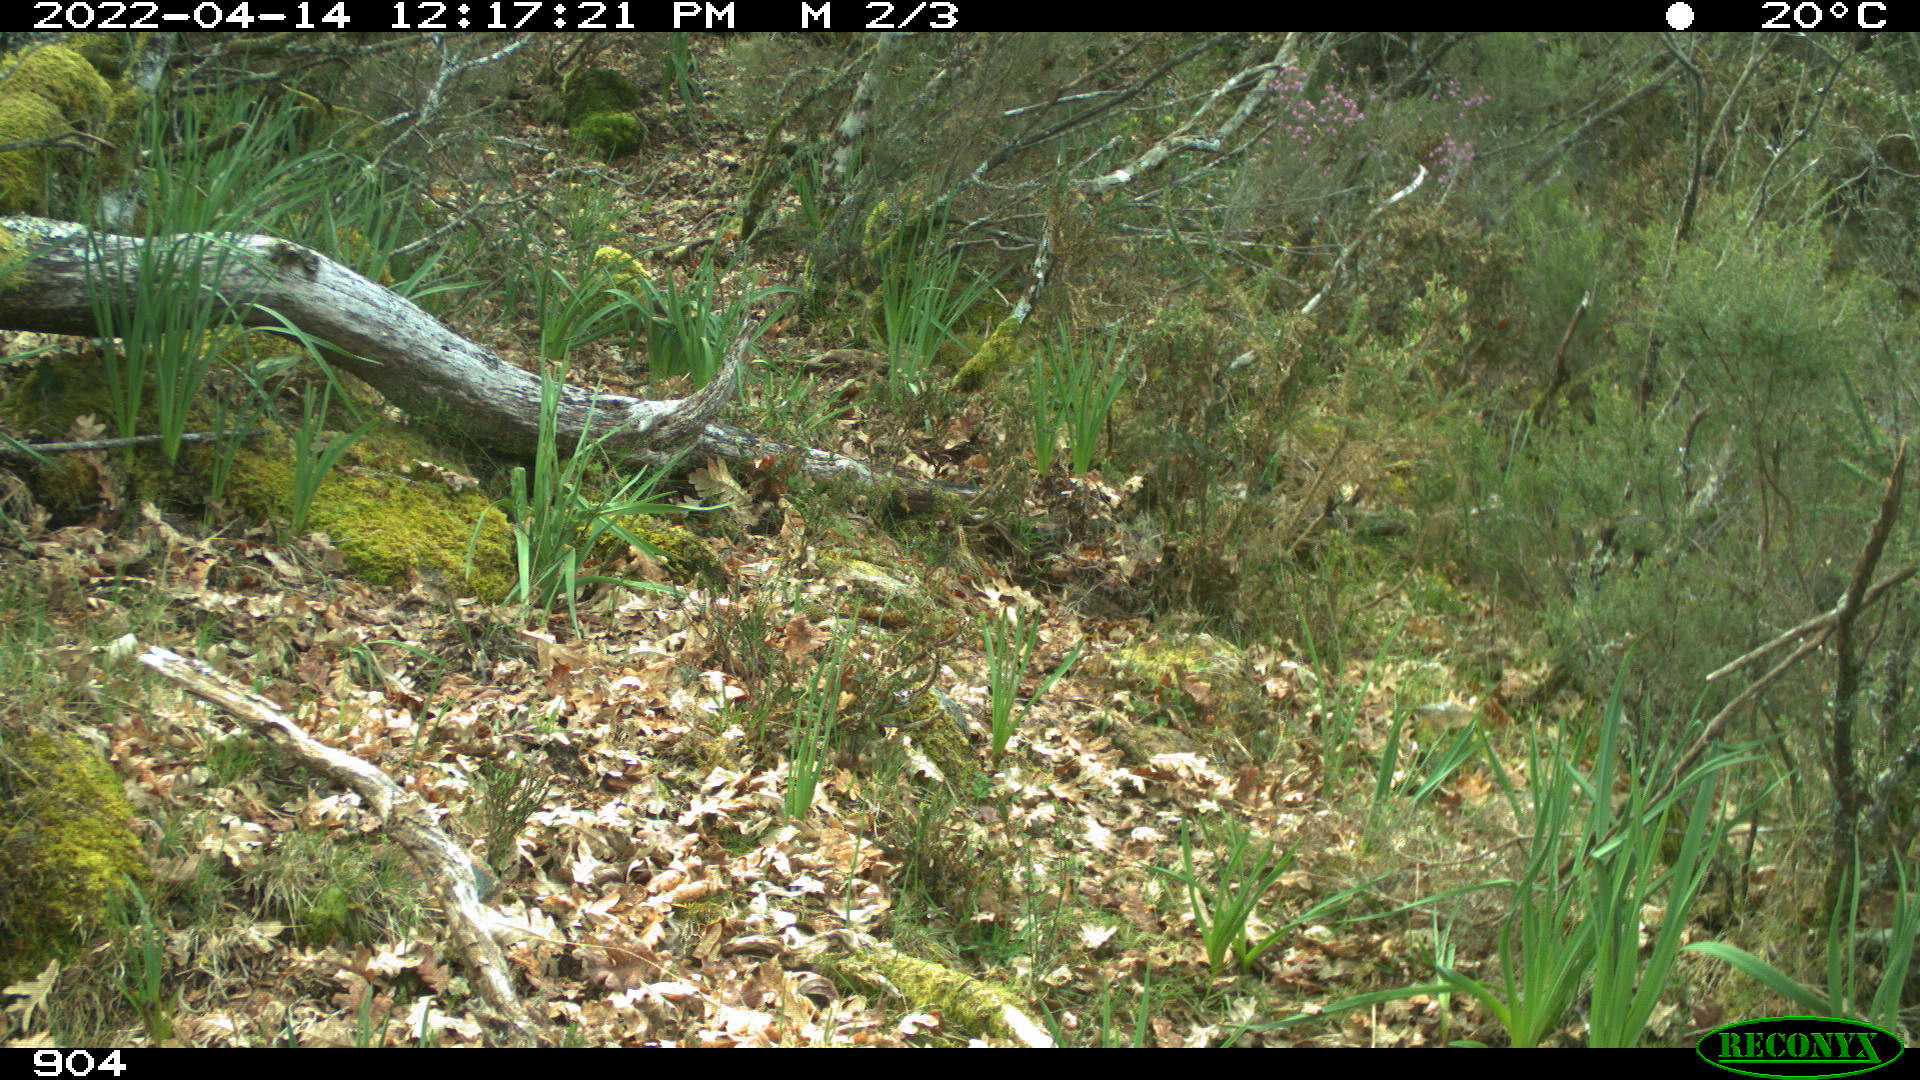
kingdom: Animalia
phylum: Chordata
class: Mammalia
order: Artiodactyla
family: Bovidae
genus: Bos
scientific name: Bos taurus
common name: Domesticated cattle
